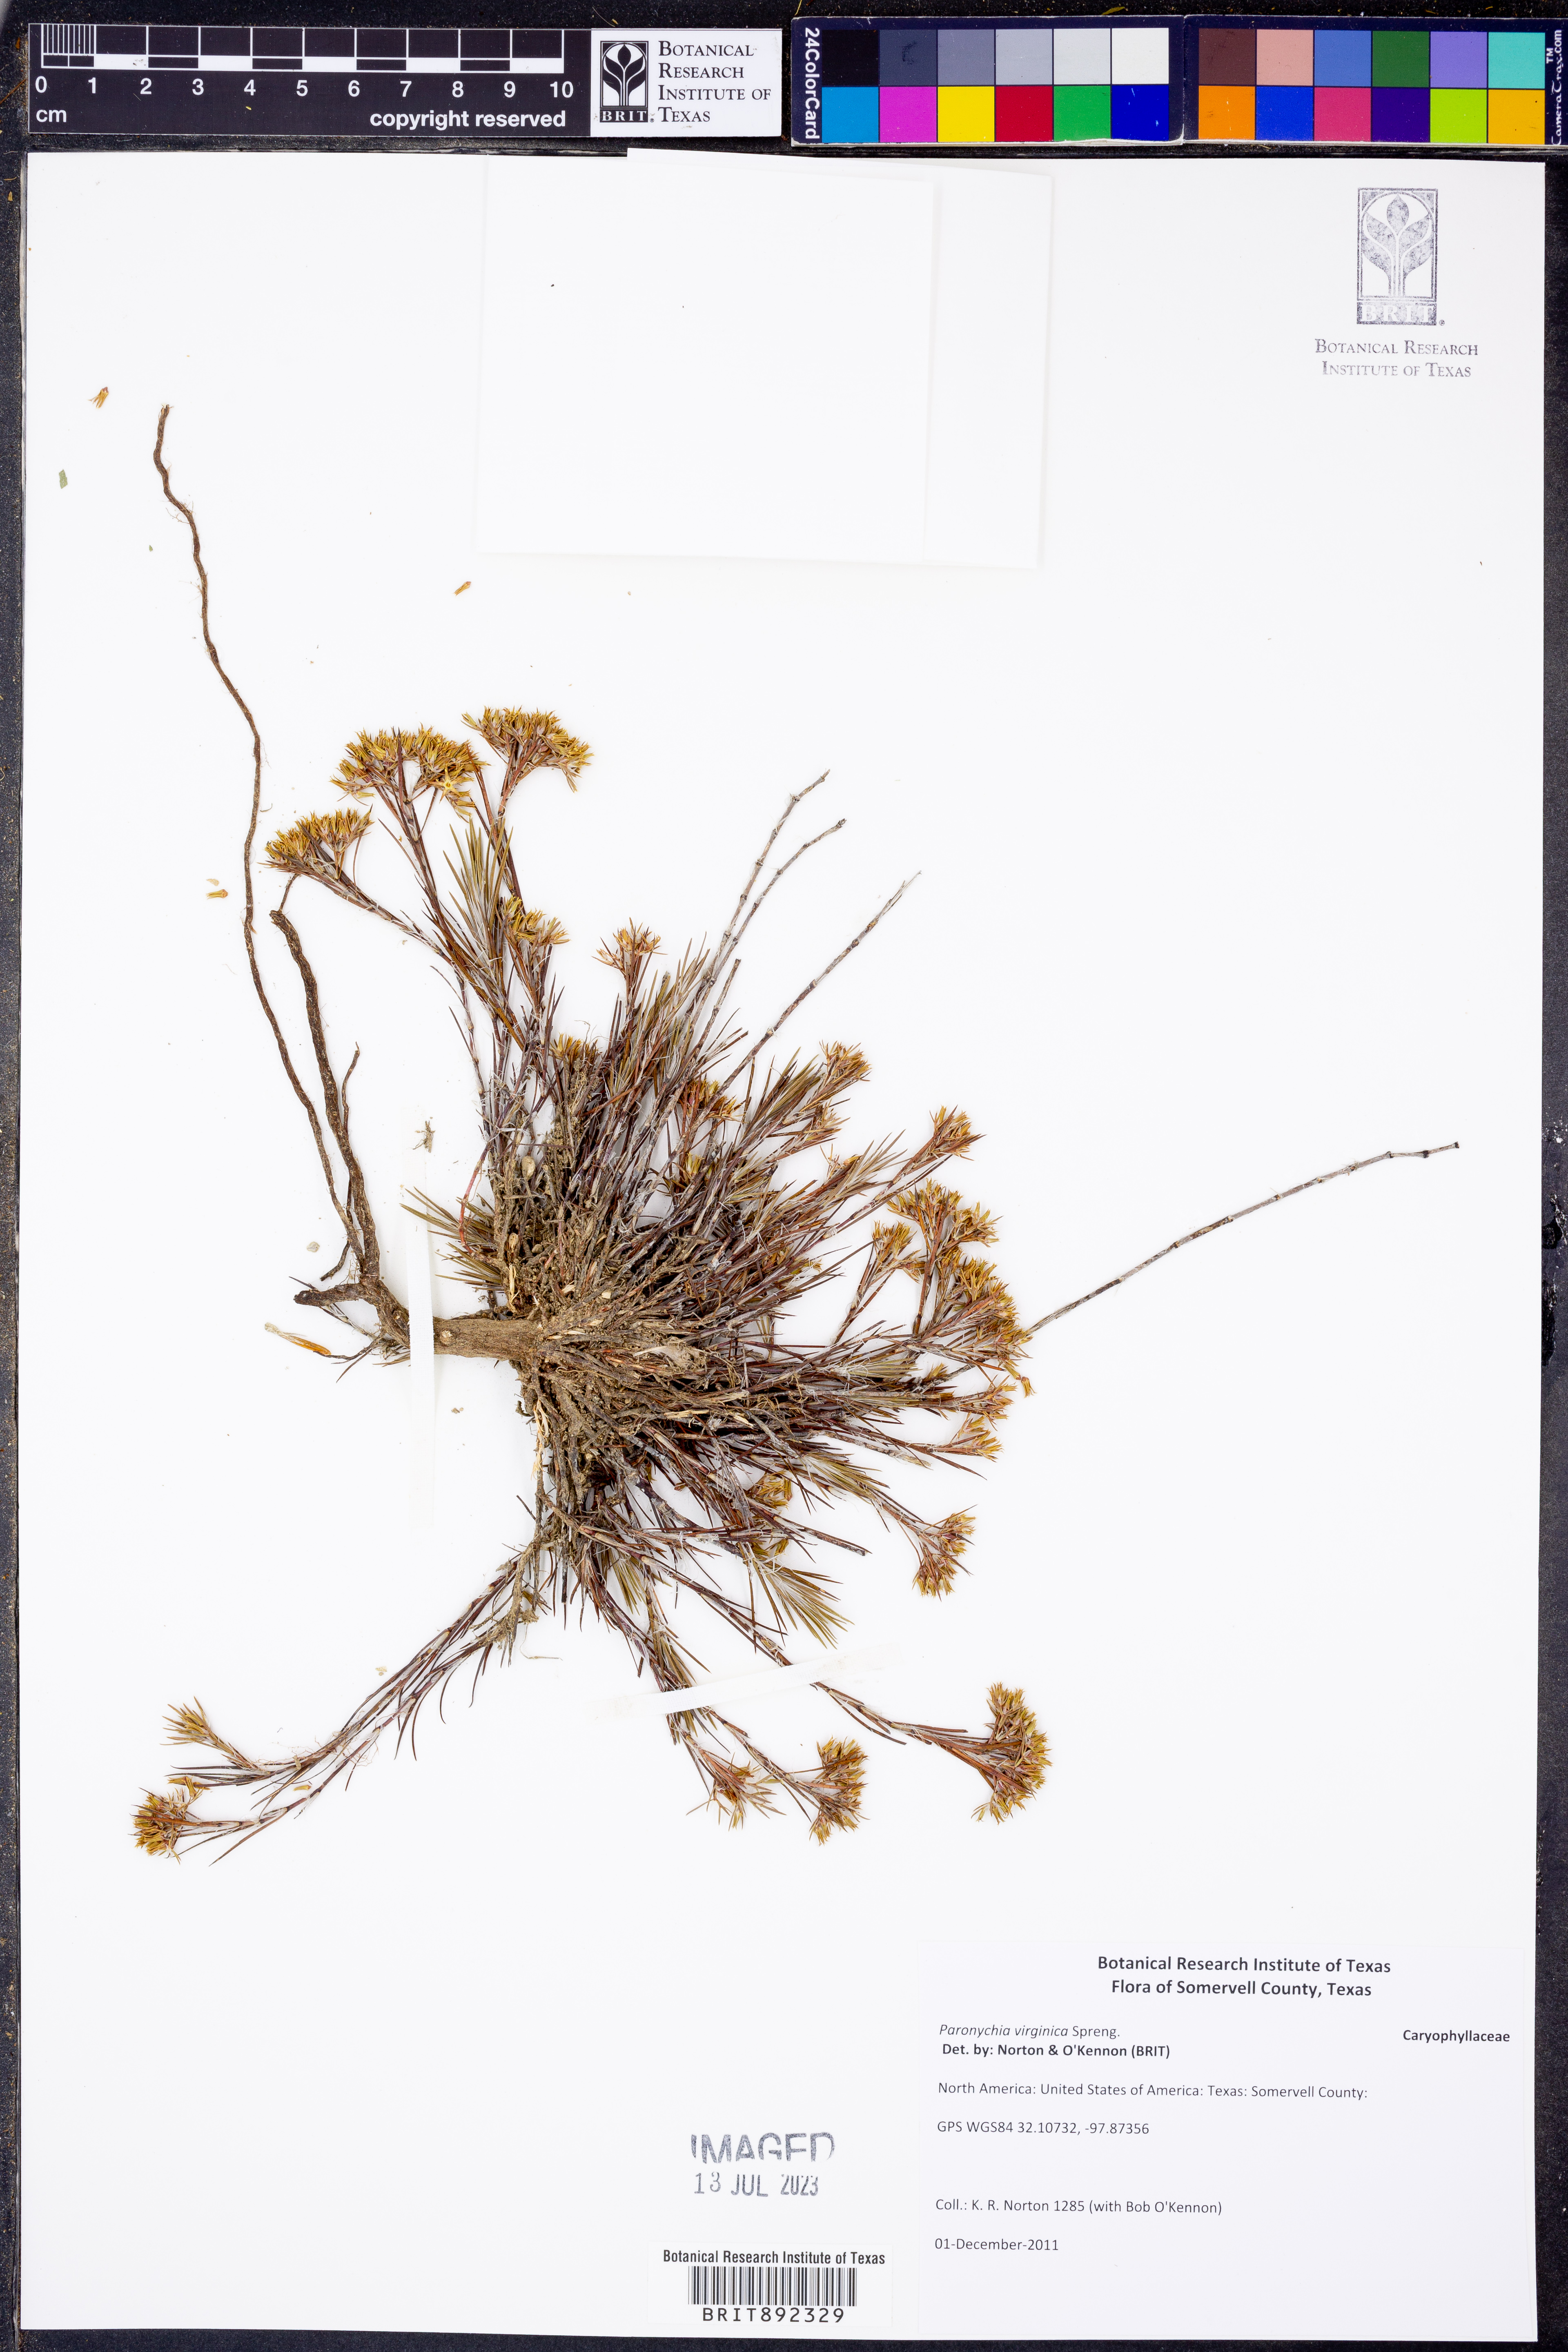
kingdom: Plantae
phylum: Tracheophyta
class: Magnoliopsida
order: Caryophyllales
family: Caryophyllaceae
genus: Paronychia
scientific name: Paronychia virginica
